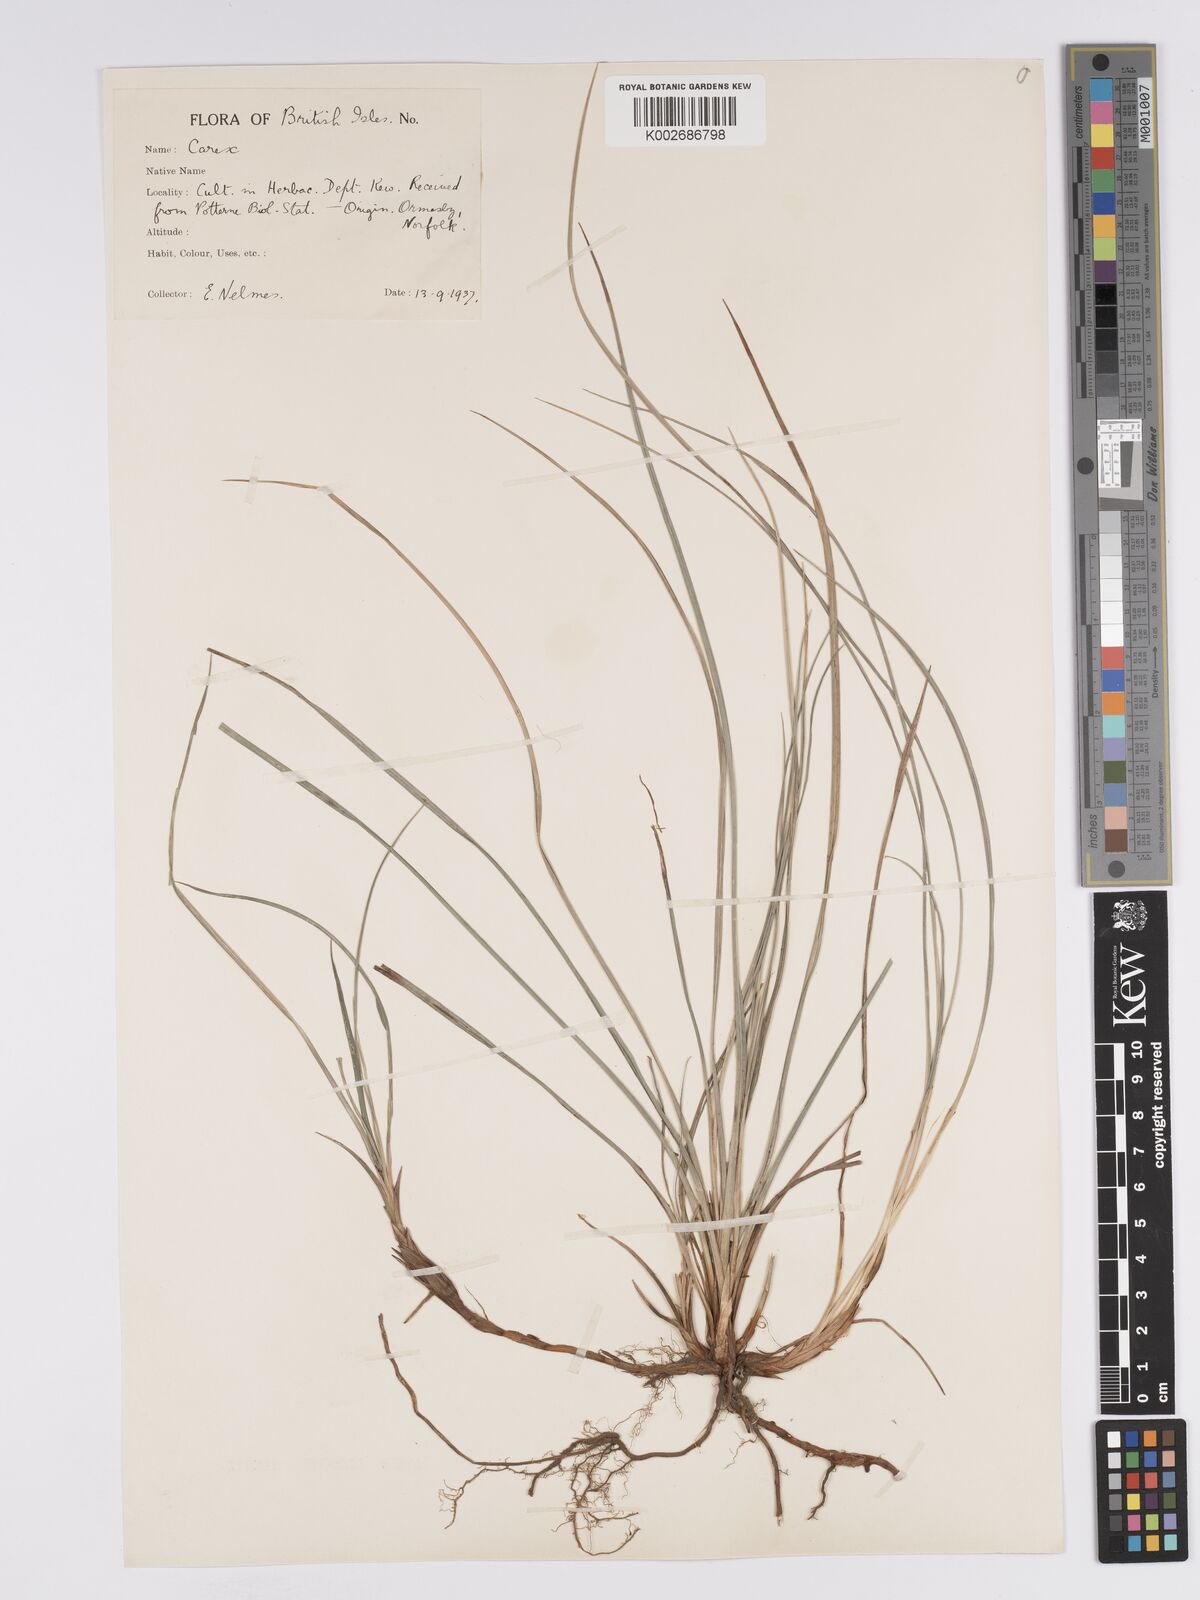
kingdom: Plantae
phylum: Tracheophyta
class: Liliopsida
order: Poales
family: Cyperaceae
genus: Carex
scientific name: Carex trinervis
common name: Three-nerved sedge
